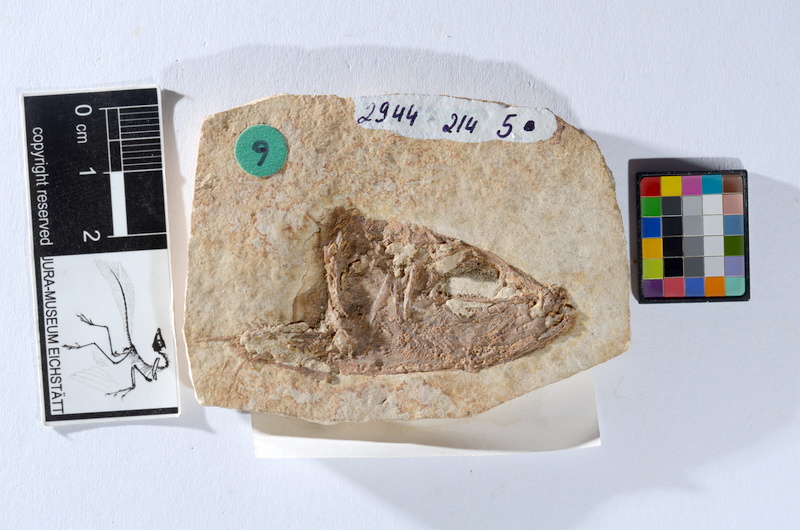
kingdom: Animalia
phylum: Chordata
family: Ascalaboidae
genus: Tharsis
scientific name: Tharsis dubius
